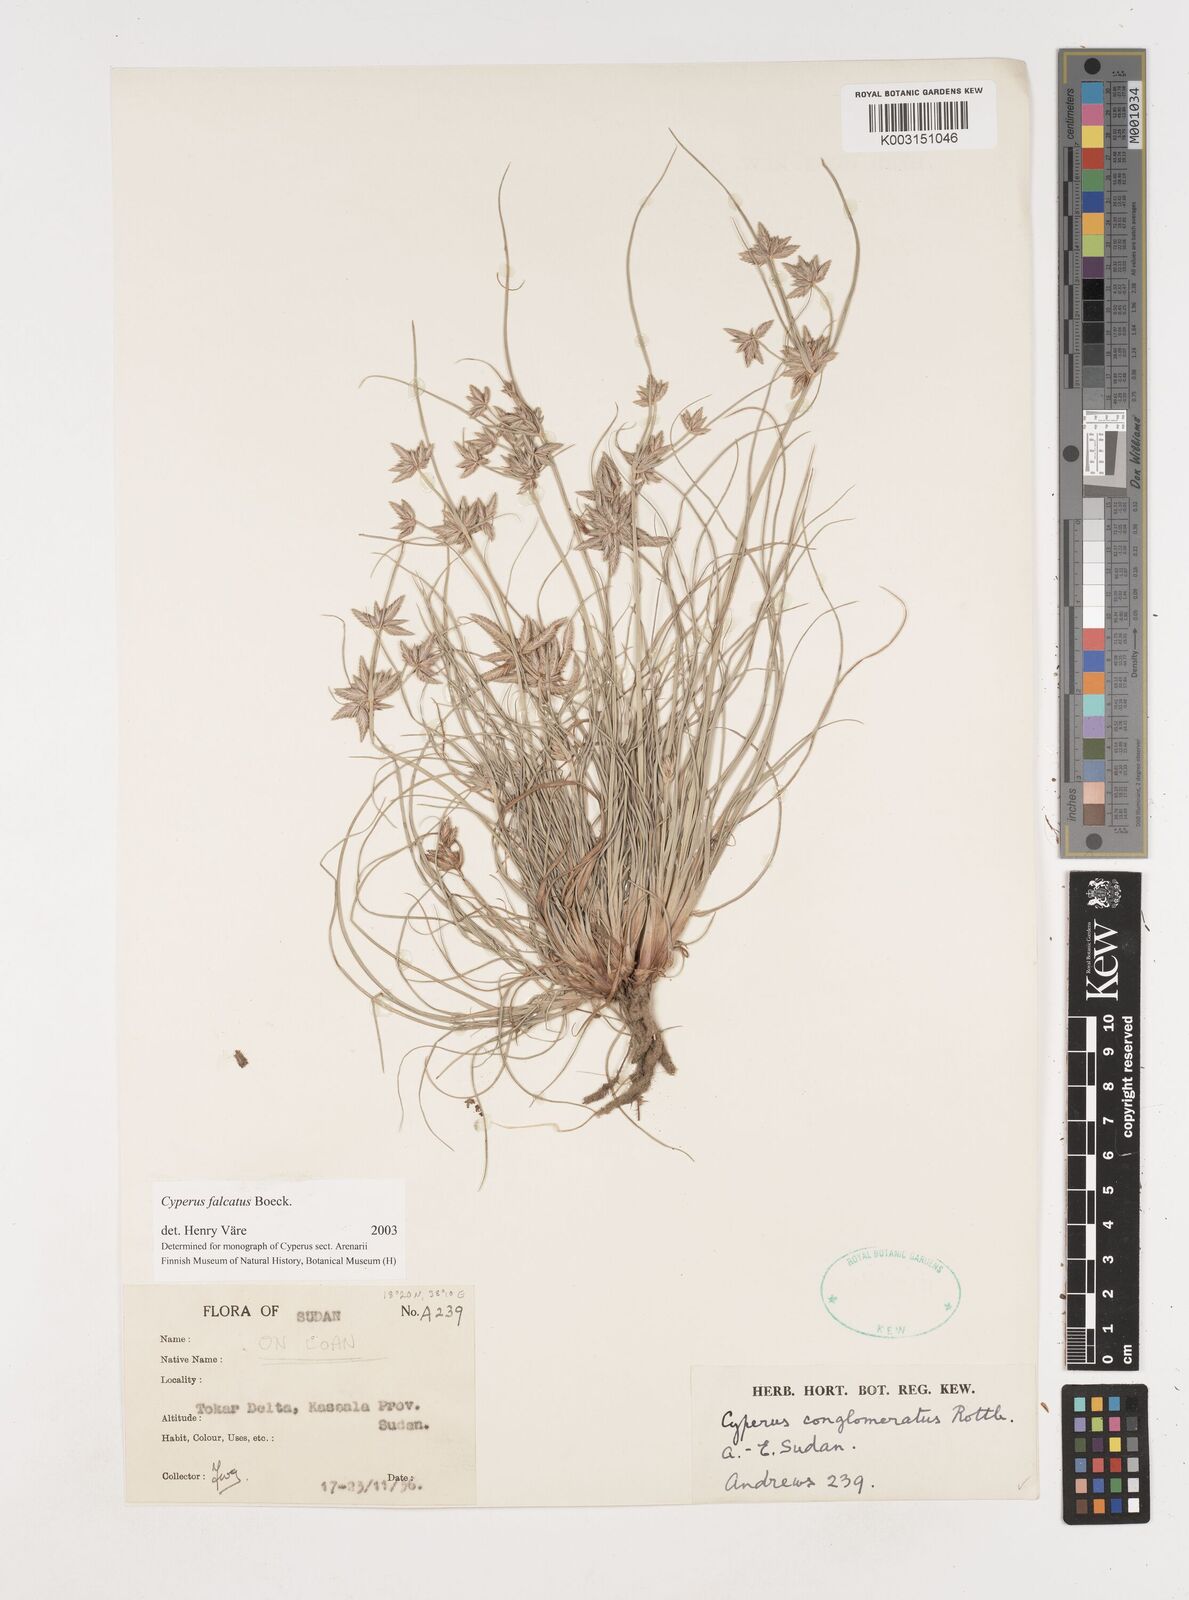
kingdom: Plantae
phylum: Tracheophyta
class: Liliopsida
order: Poales
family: Cyperaceae
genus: Cyperus
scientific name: Cyperus conglomeratus
